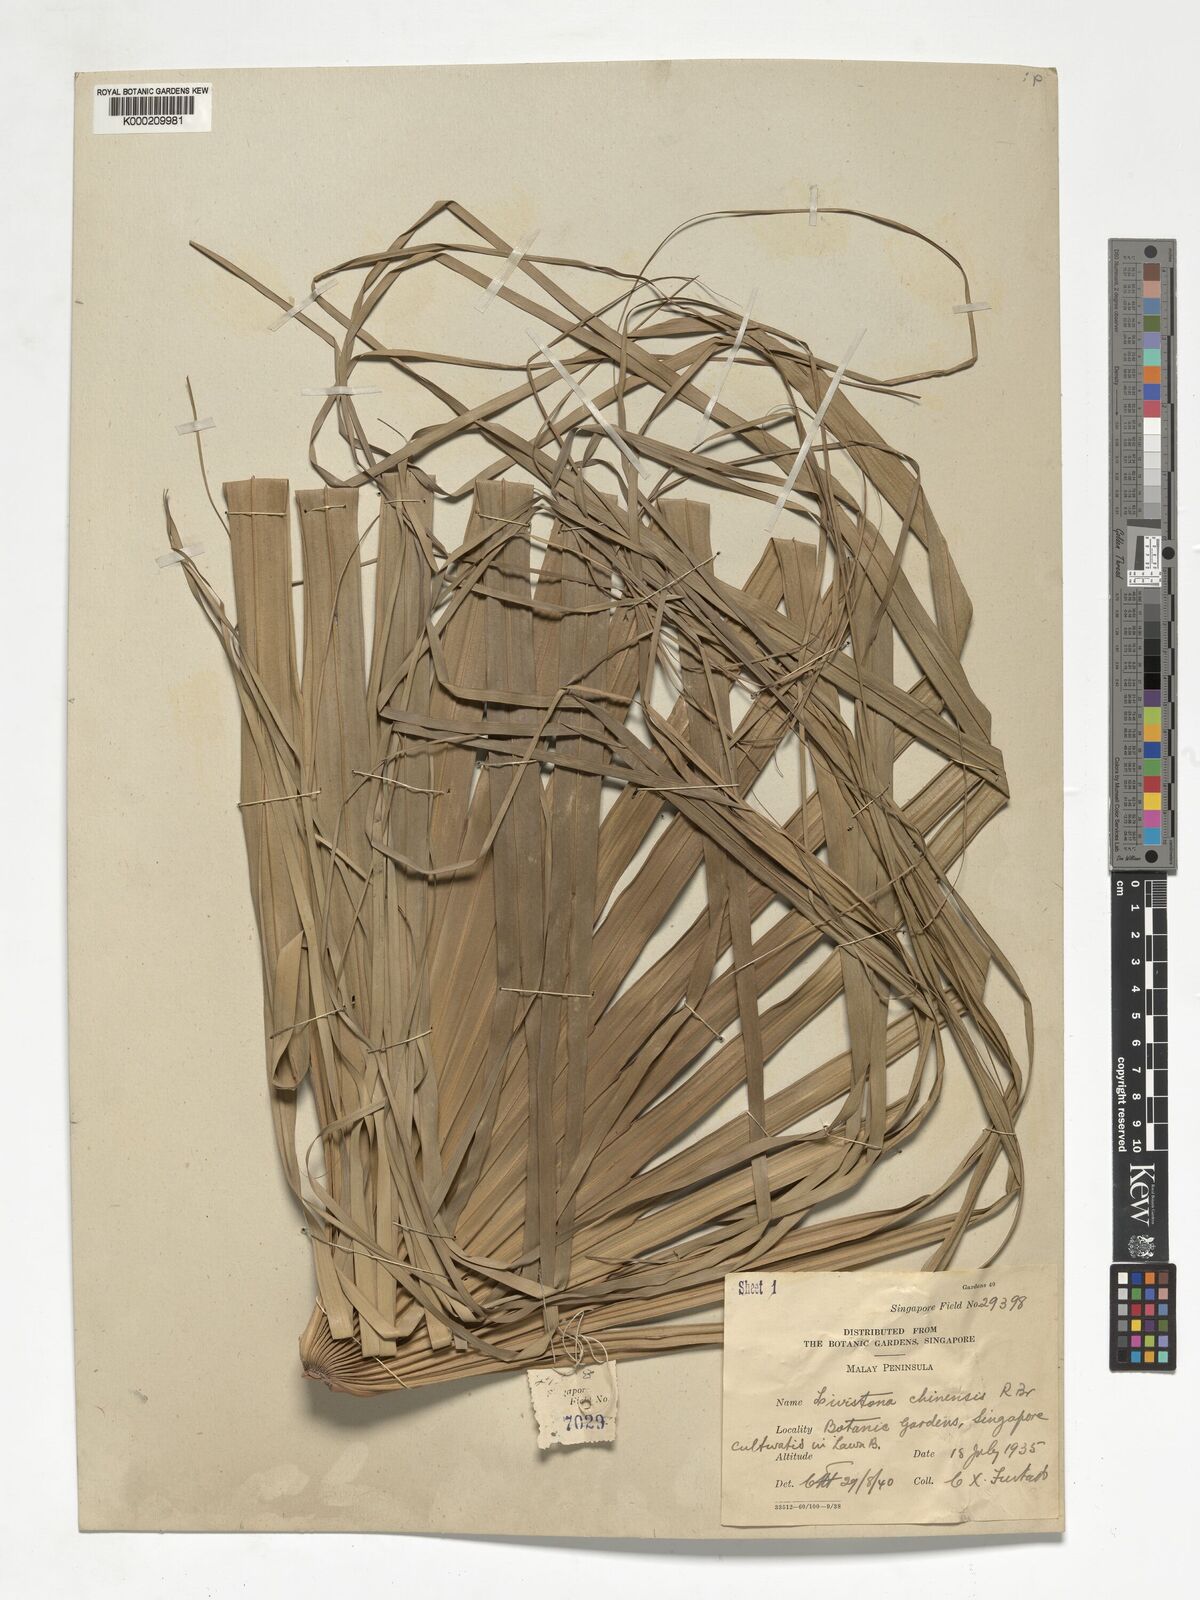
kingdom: Plantae
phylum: Tracheophyta
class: Liliopsida
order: Arecales
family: Arecaceae
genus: Livistona
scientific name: Livistona chinensis
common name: Fountain palm
